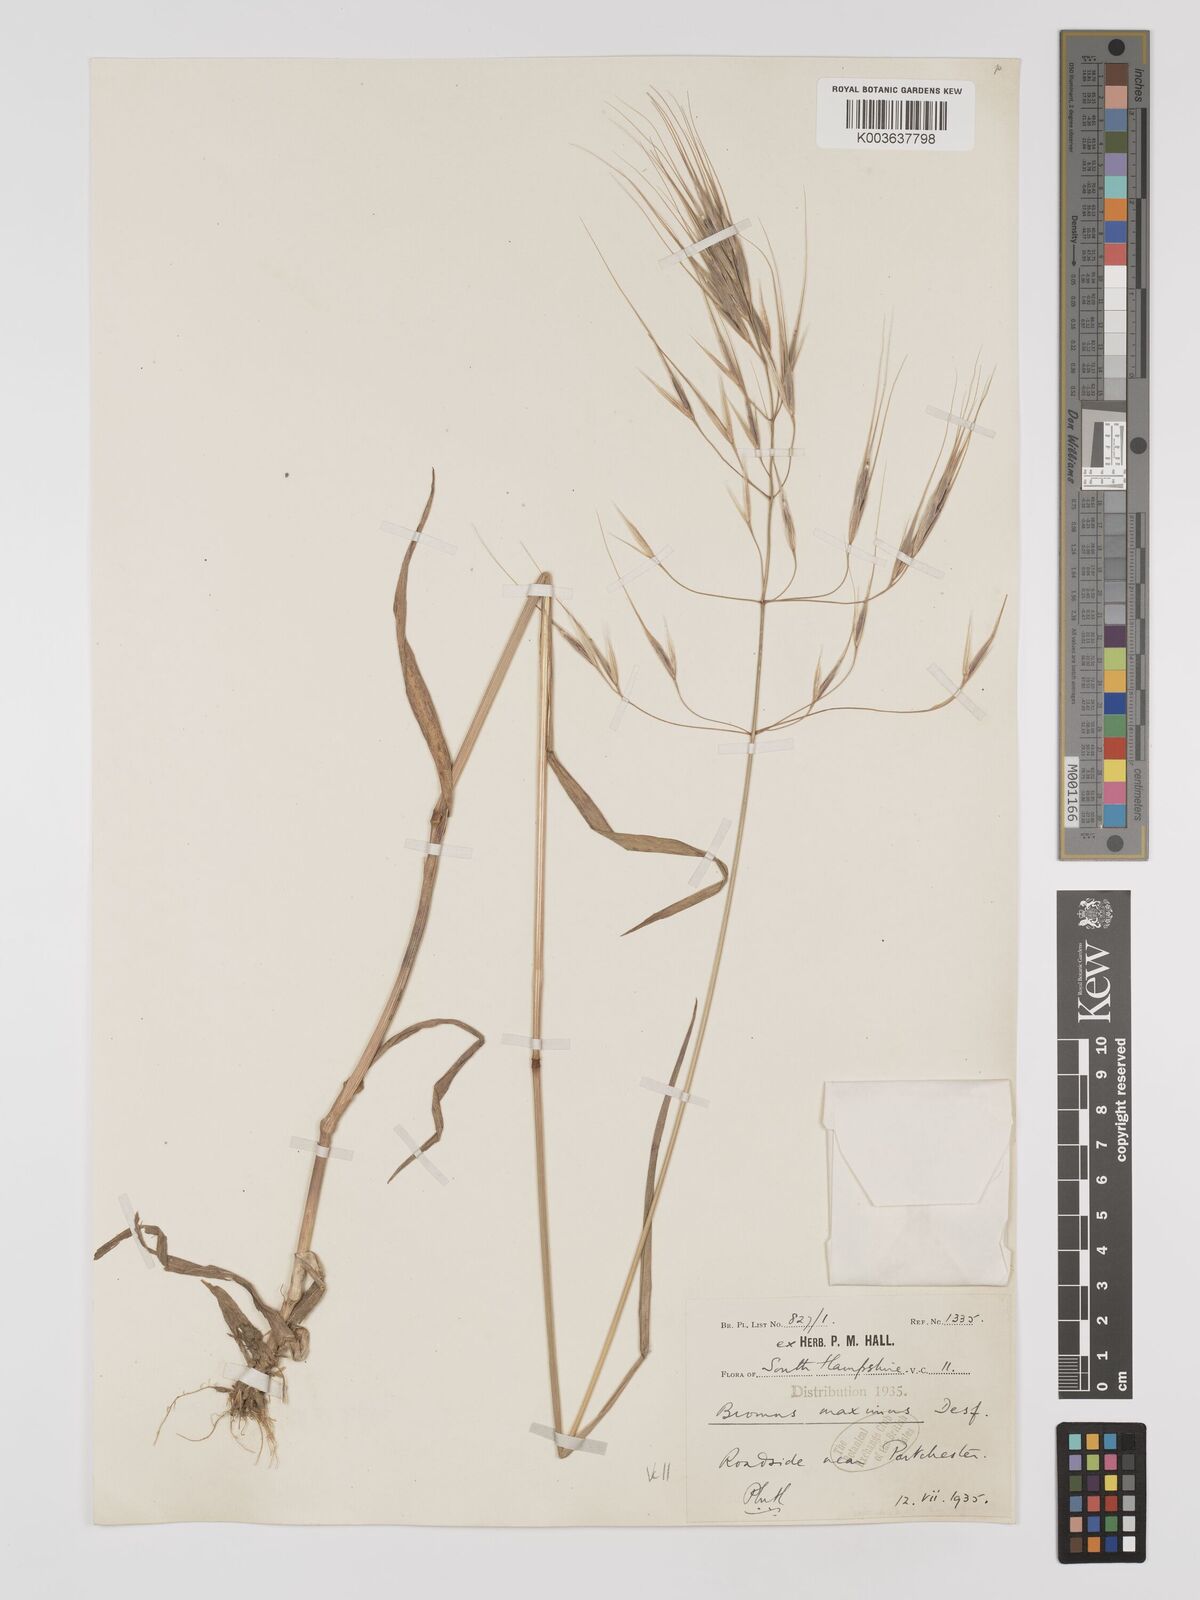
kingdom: Plantae
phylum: Tracheophyta
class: Liliopsida
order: Poales
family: Poaceae
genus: Bromus
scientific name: Bromus
